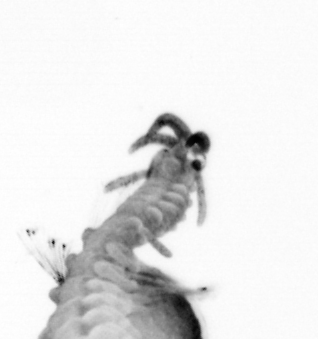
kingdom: Animalia
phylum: Annelida
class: Polychaeta
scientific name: Polychaeta
